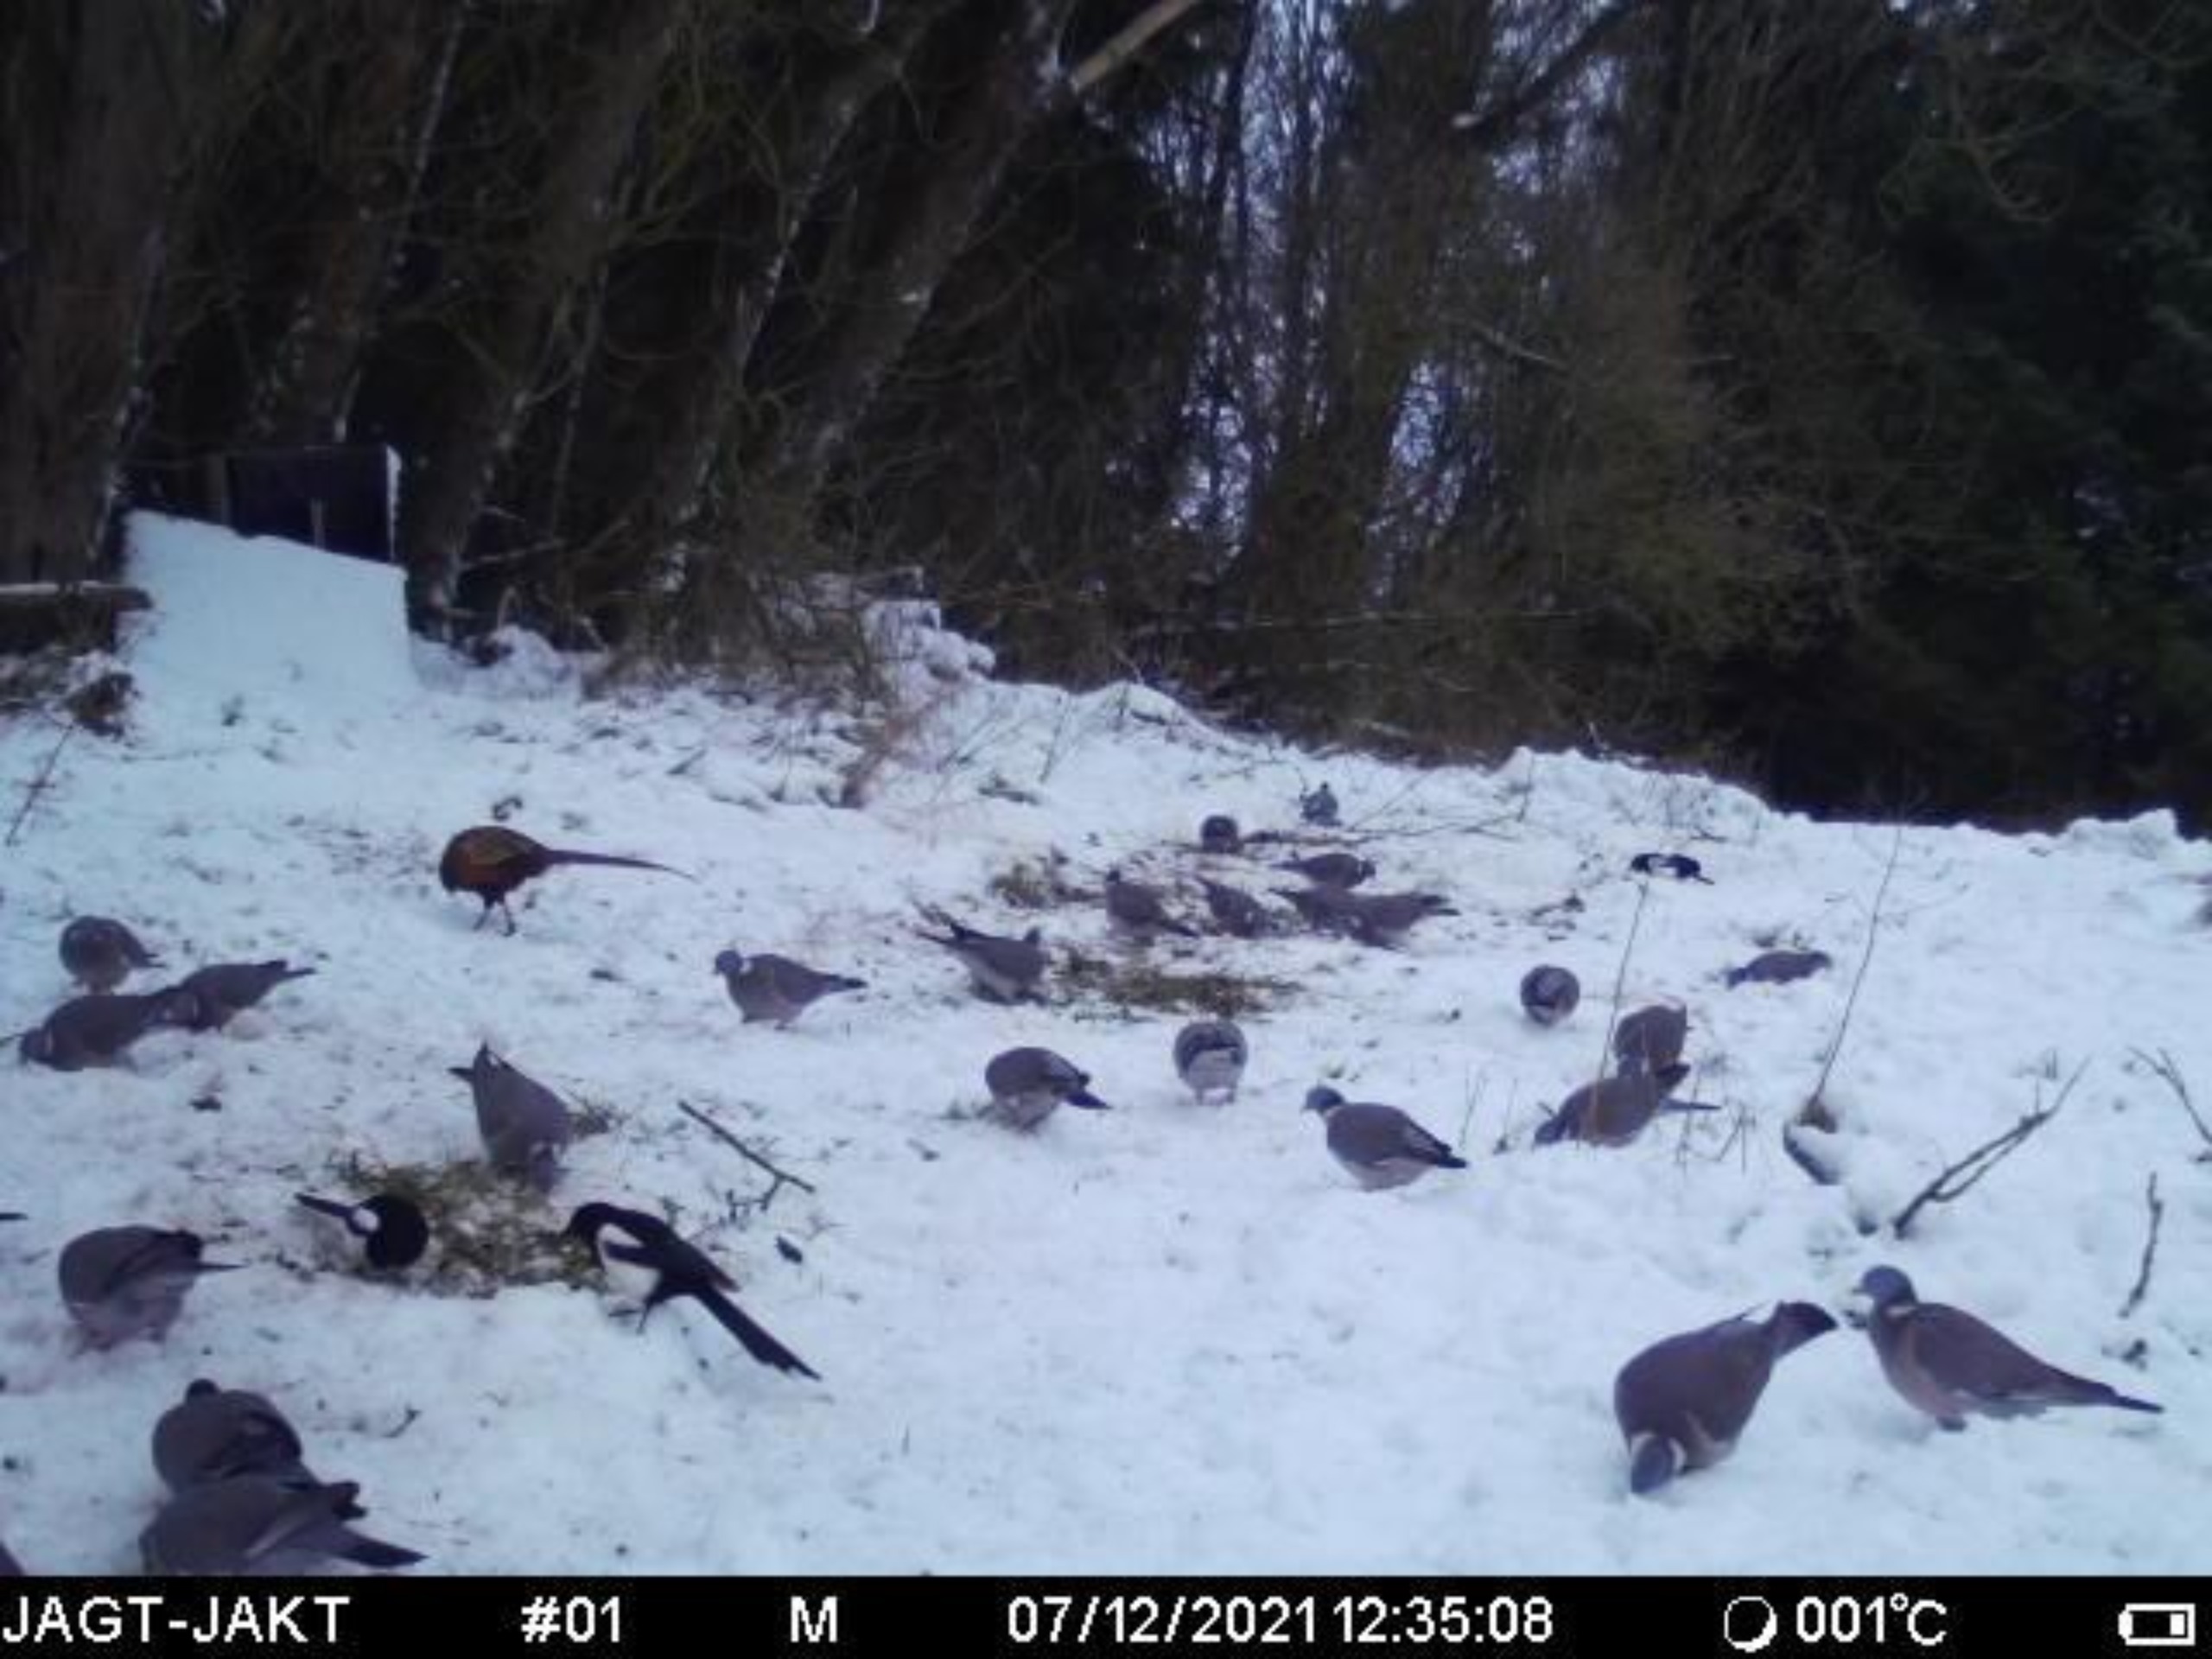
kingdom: Animalia
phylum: Chordata
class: Aves
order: Columbiformes
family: Columbidae
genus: Columba
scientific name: Columba palumbus
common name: Ringdue
